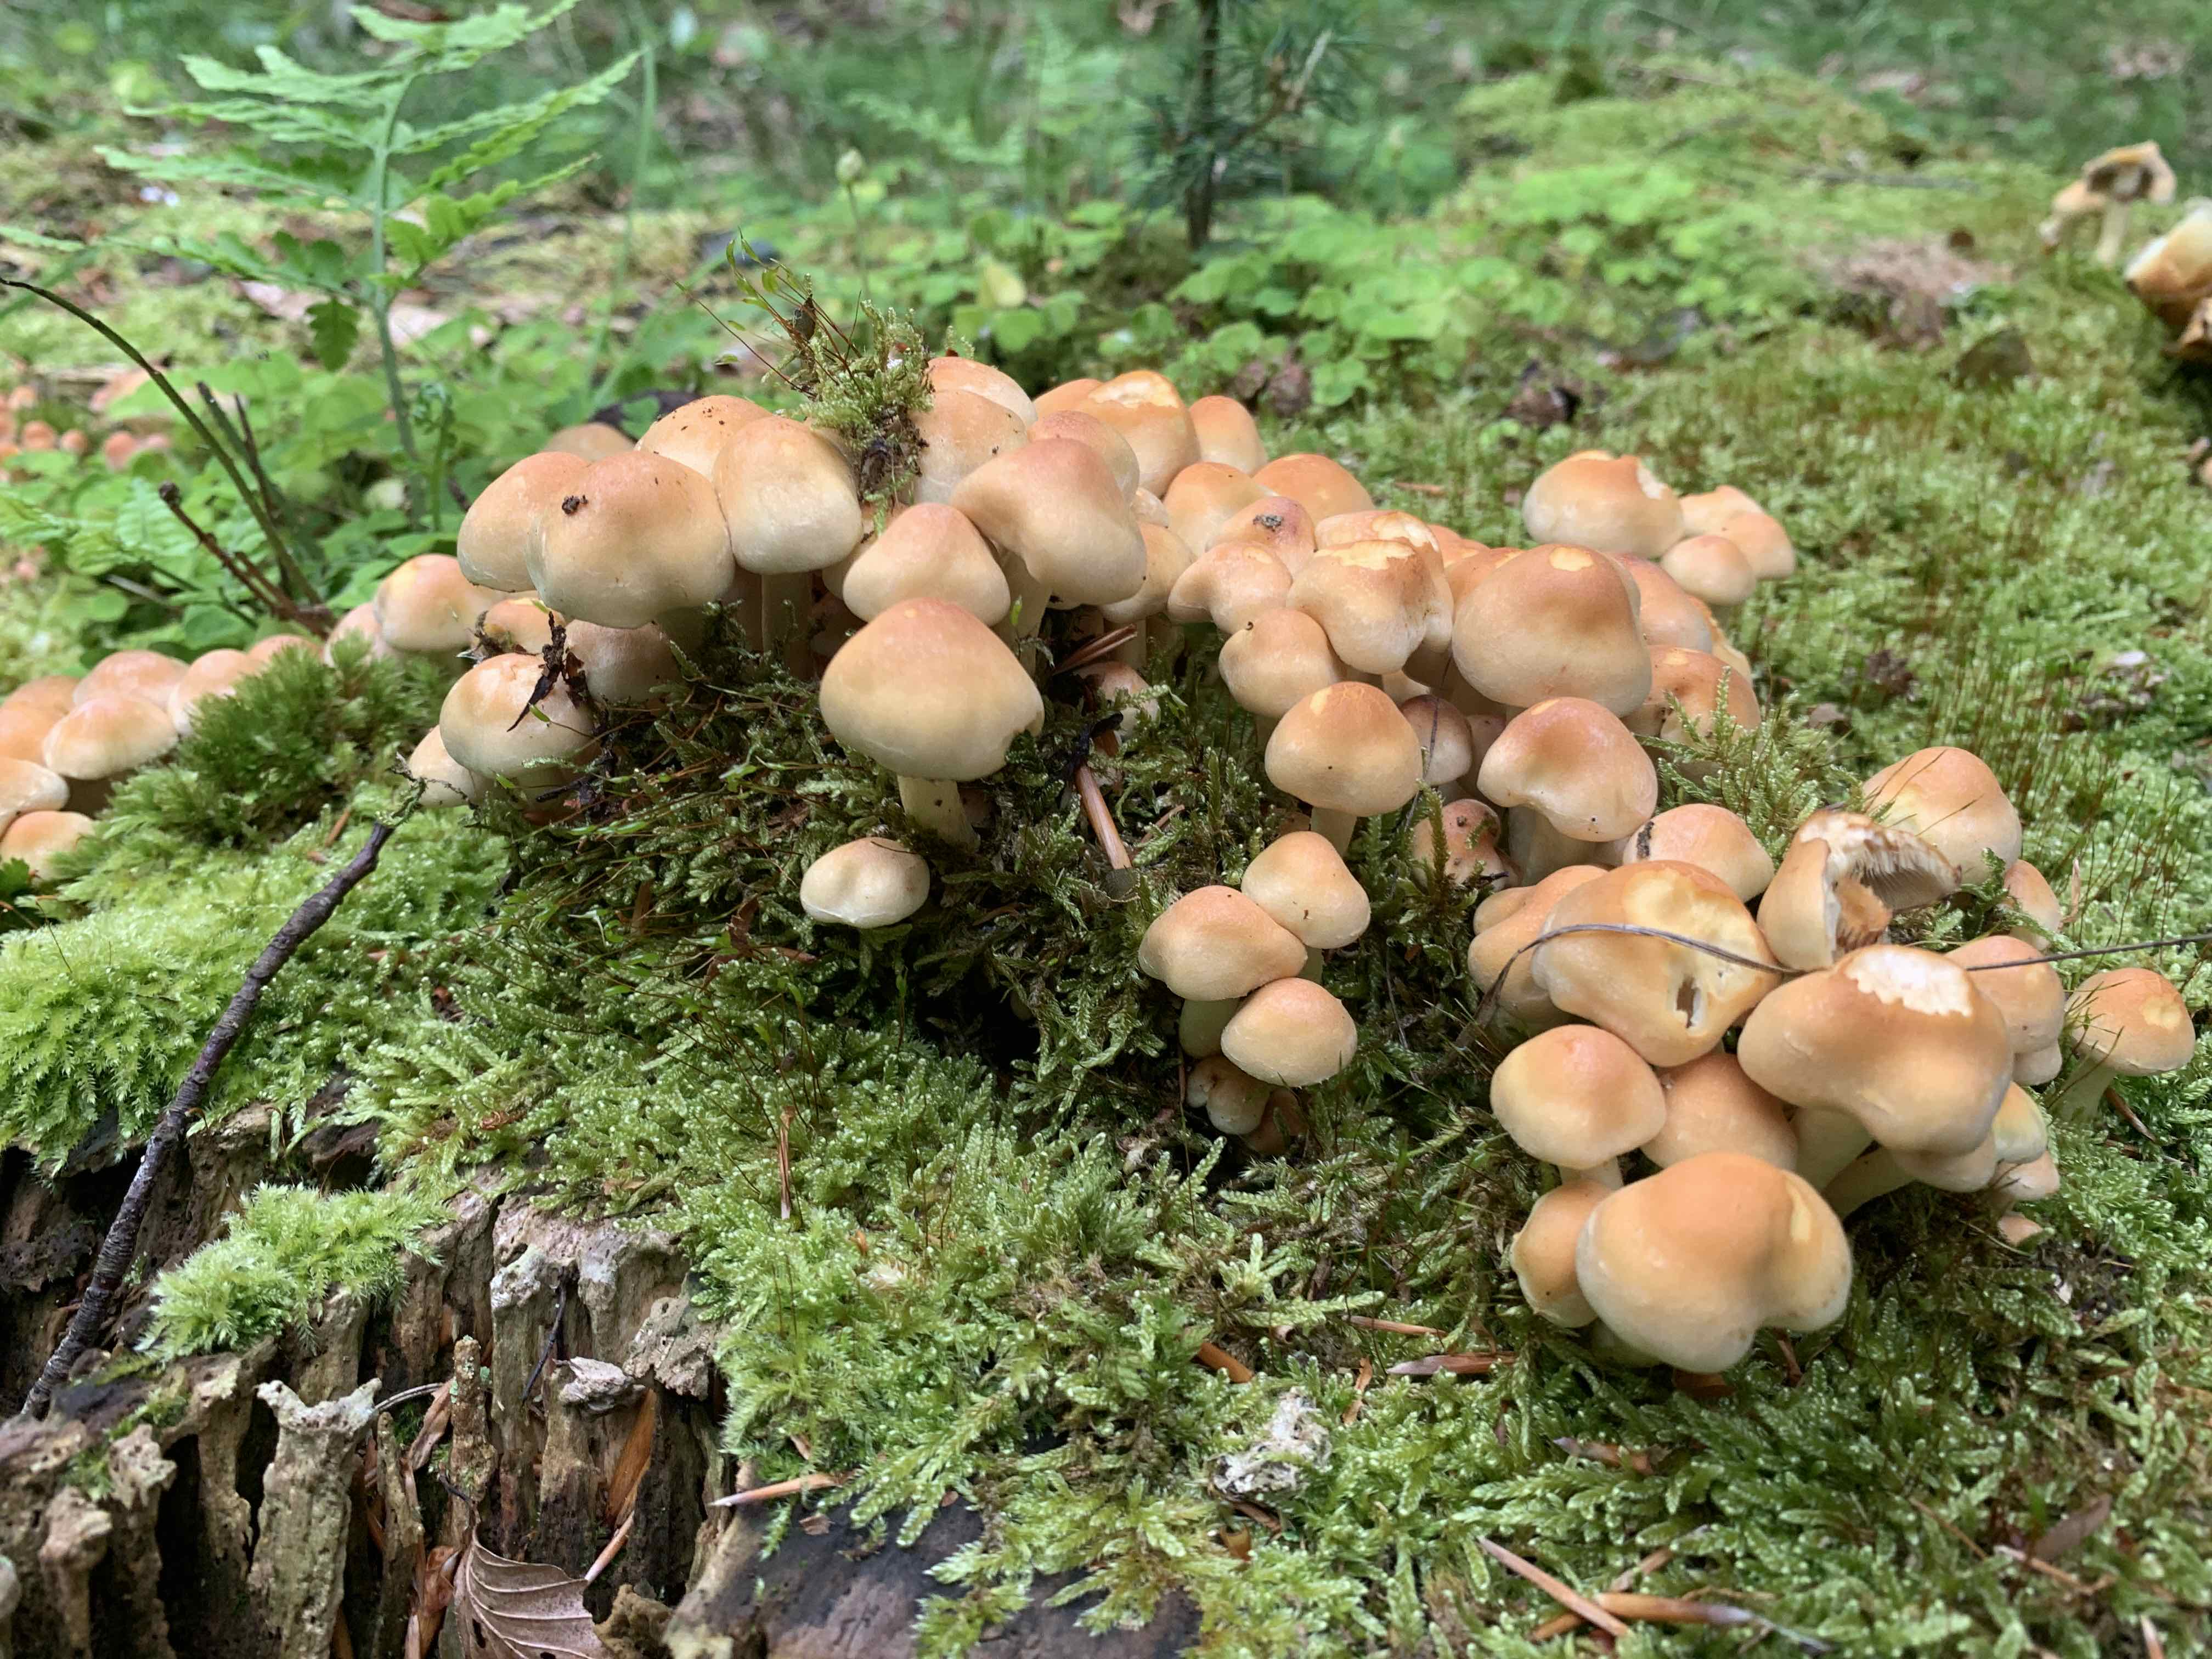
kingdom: Fungi
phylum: Basidiomycota
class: Agaricomycetes
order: Agaricales
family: Strophariaceae
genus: Hypholoma
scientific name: Hypholoma fasciculare
